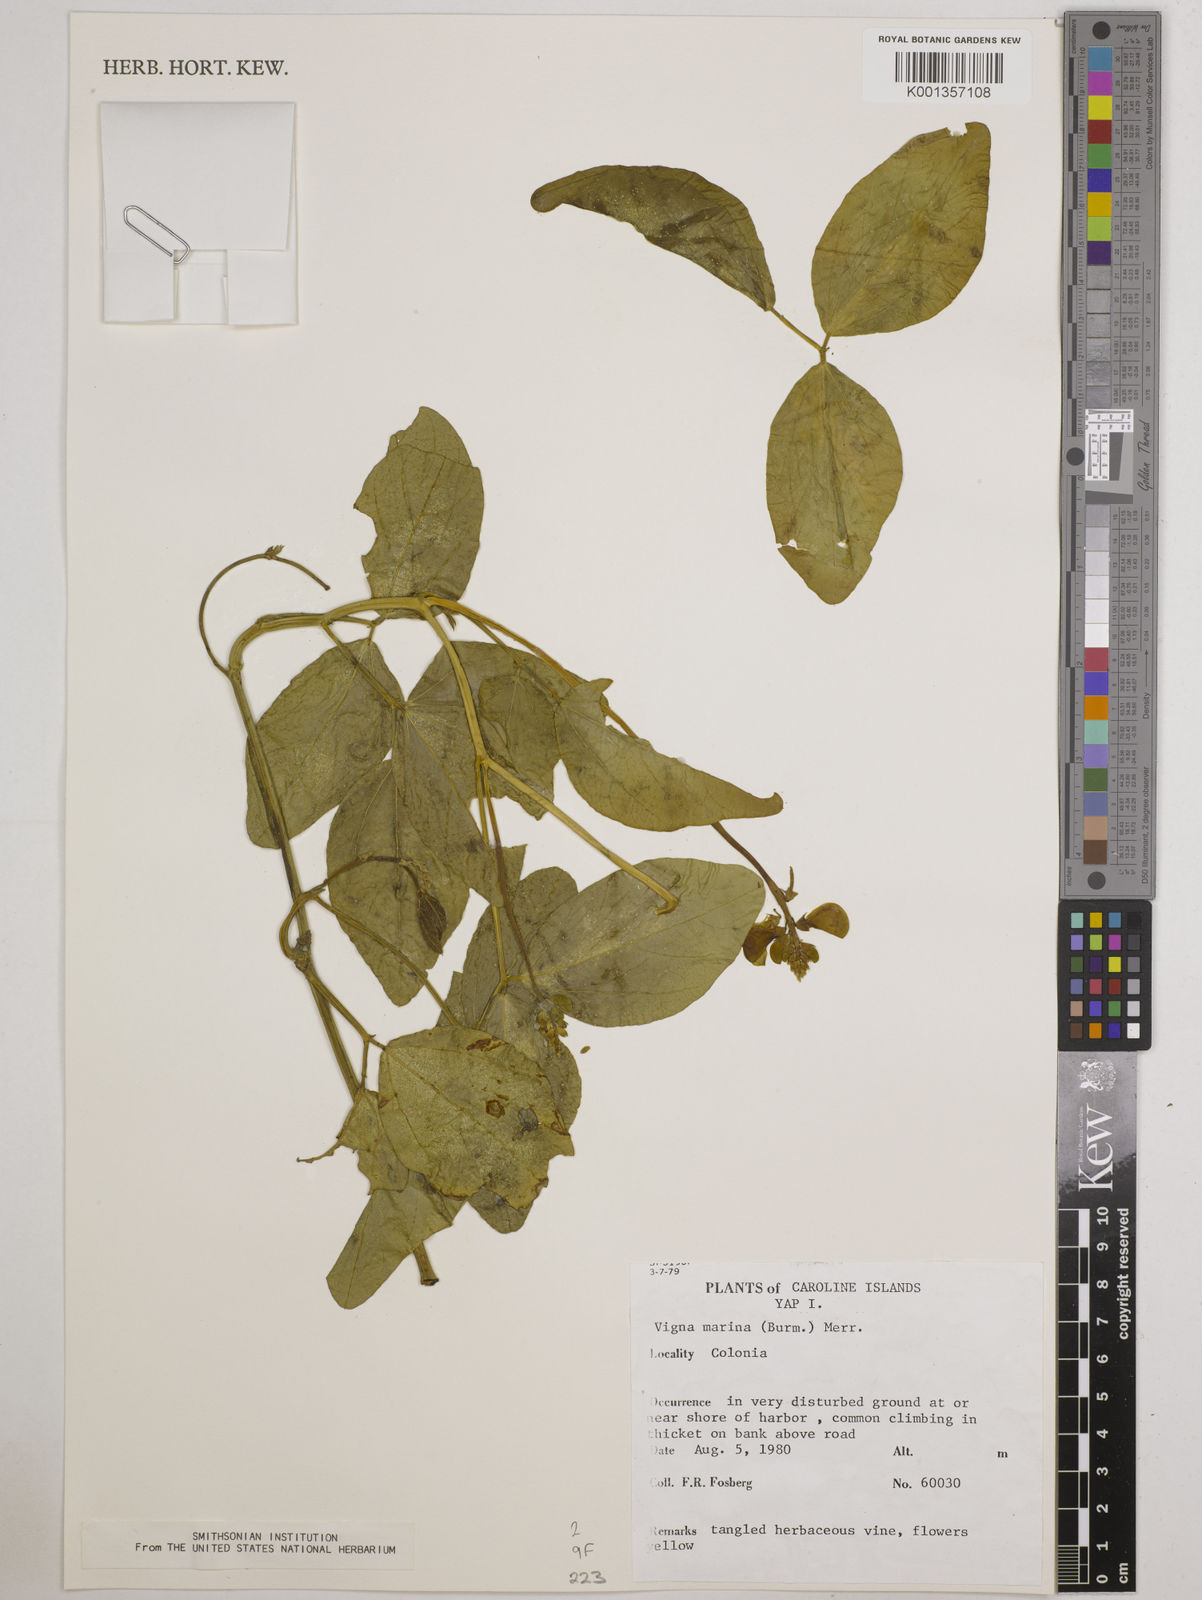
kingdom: Plantae
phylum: Tracheophyta
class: Magnoliopsida
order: Fabales
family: Fabaceae
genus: Vigna
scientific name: Vigna marina
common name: Dune-bean
